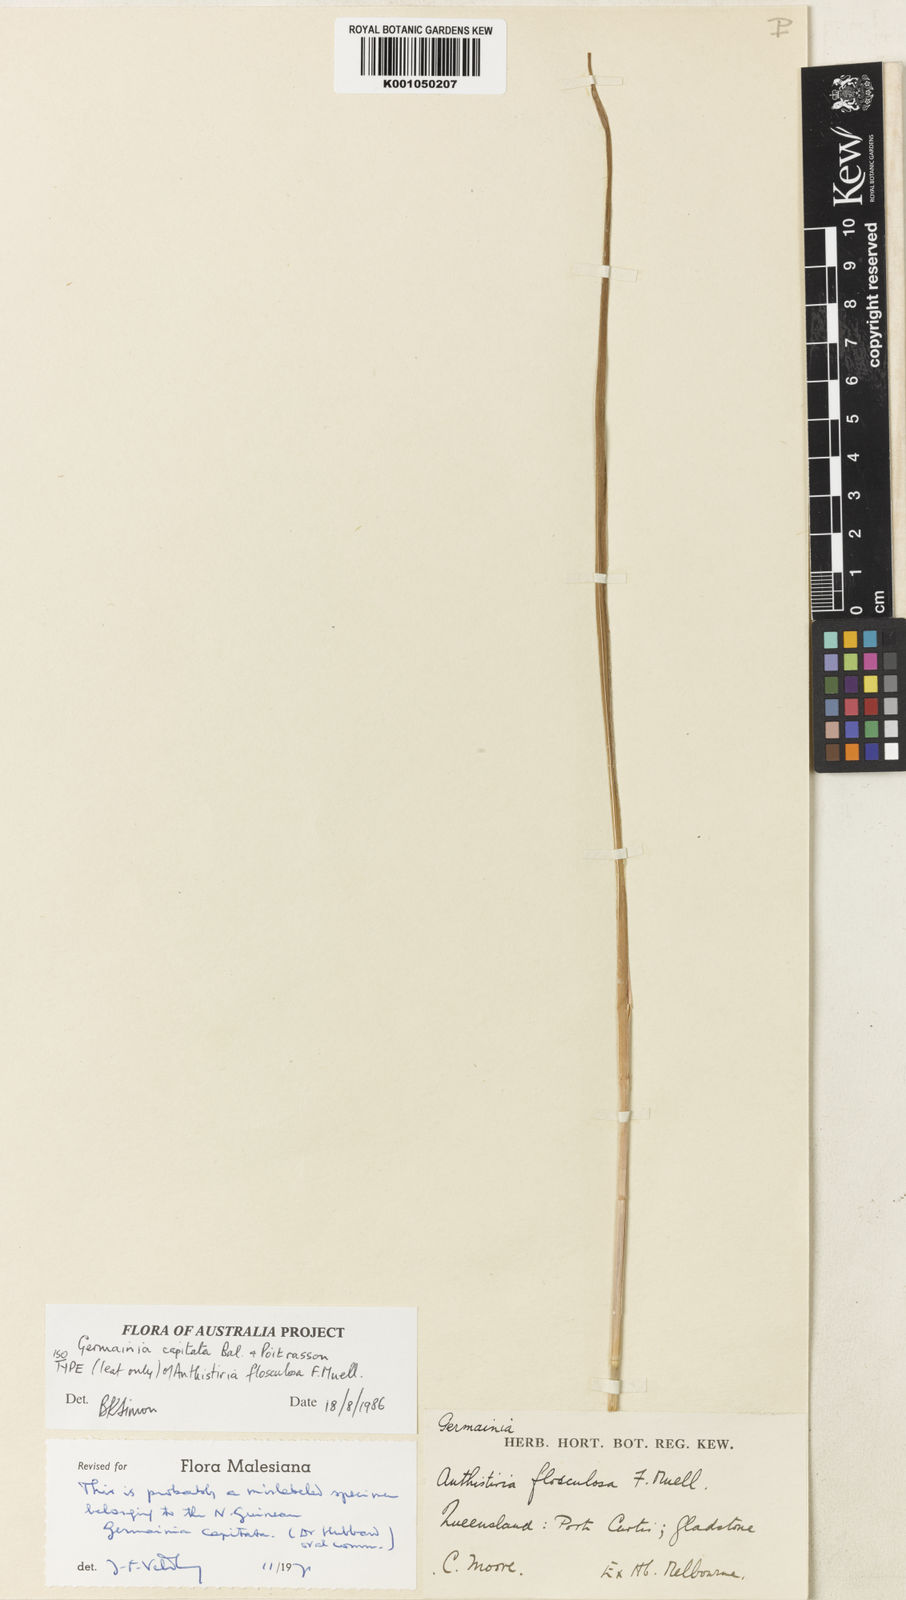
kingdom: Plantae
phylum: Tracheophyta
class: Liliopsida
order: Poales
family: Poaceae
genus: Germainia
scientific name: Germainia capitata
